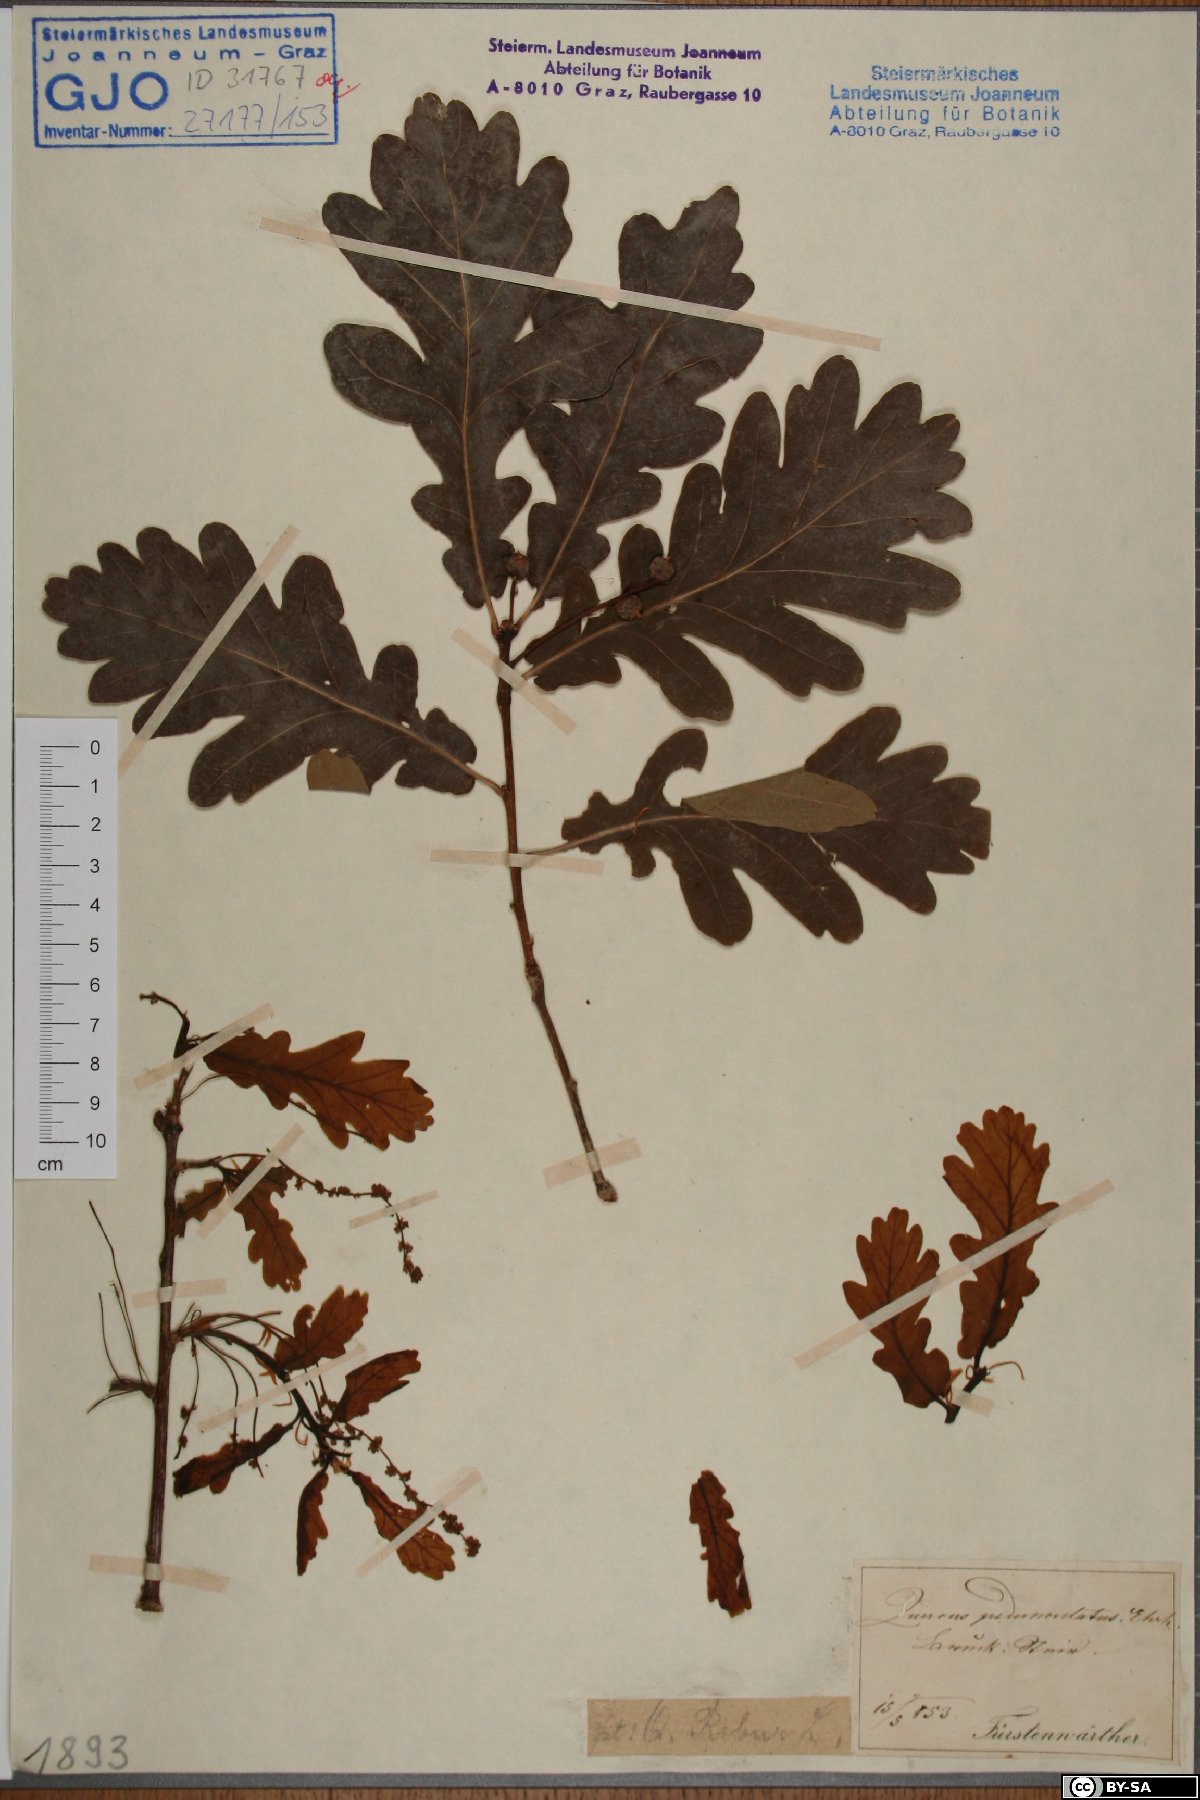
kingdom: Plantae
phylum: Tracheophyta
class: Magnoliopsida
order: Fagales
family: Fagaceae
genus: Quercus
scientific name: Quercus robur
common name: Pedunculate oak
